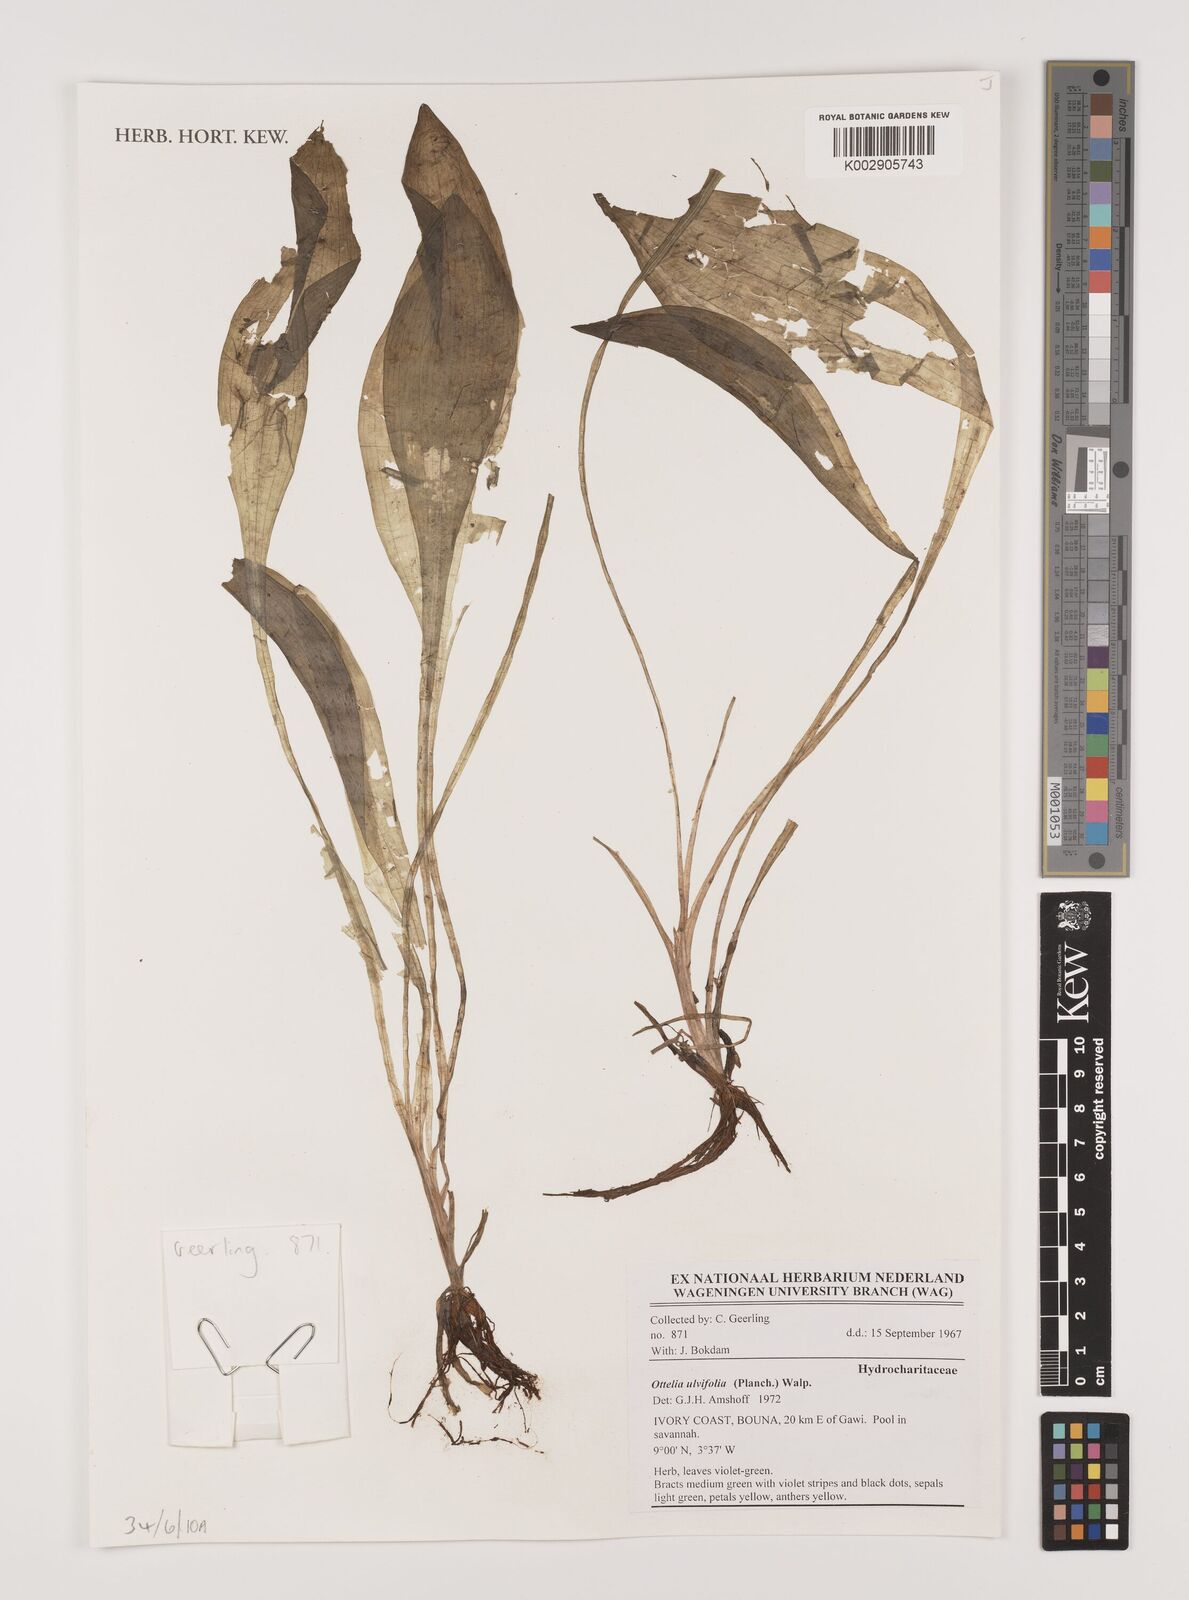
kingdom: Plantae
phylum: Tracheophyta
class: Liliopsida
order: Alismatales
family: Hydrocharitaceae
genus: Ottelia
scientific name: Ottelia ulvifolia
